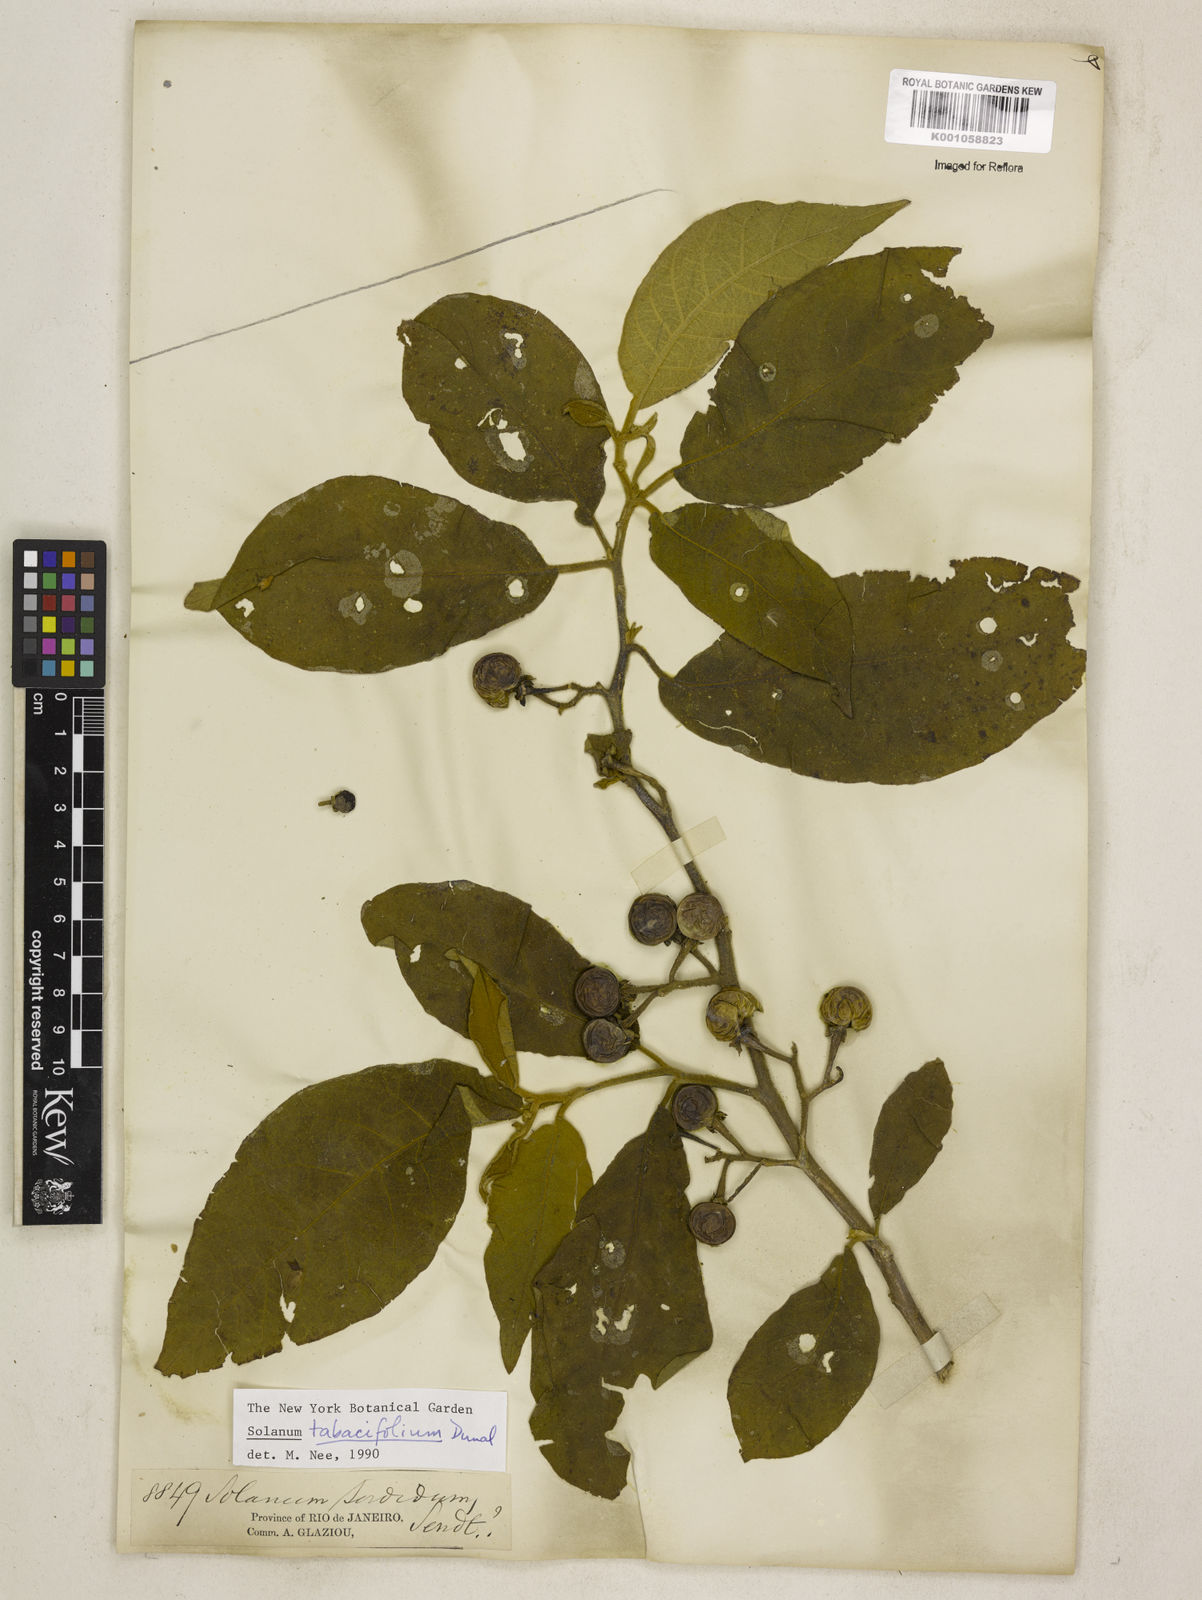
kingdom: Plantae
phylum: Tracheophyta
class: Magnoliopsida
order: Solanales
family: Solanaceae
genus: Solanum
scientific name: Solanum scuticum
